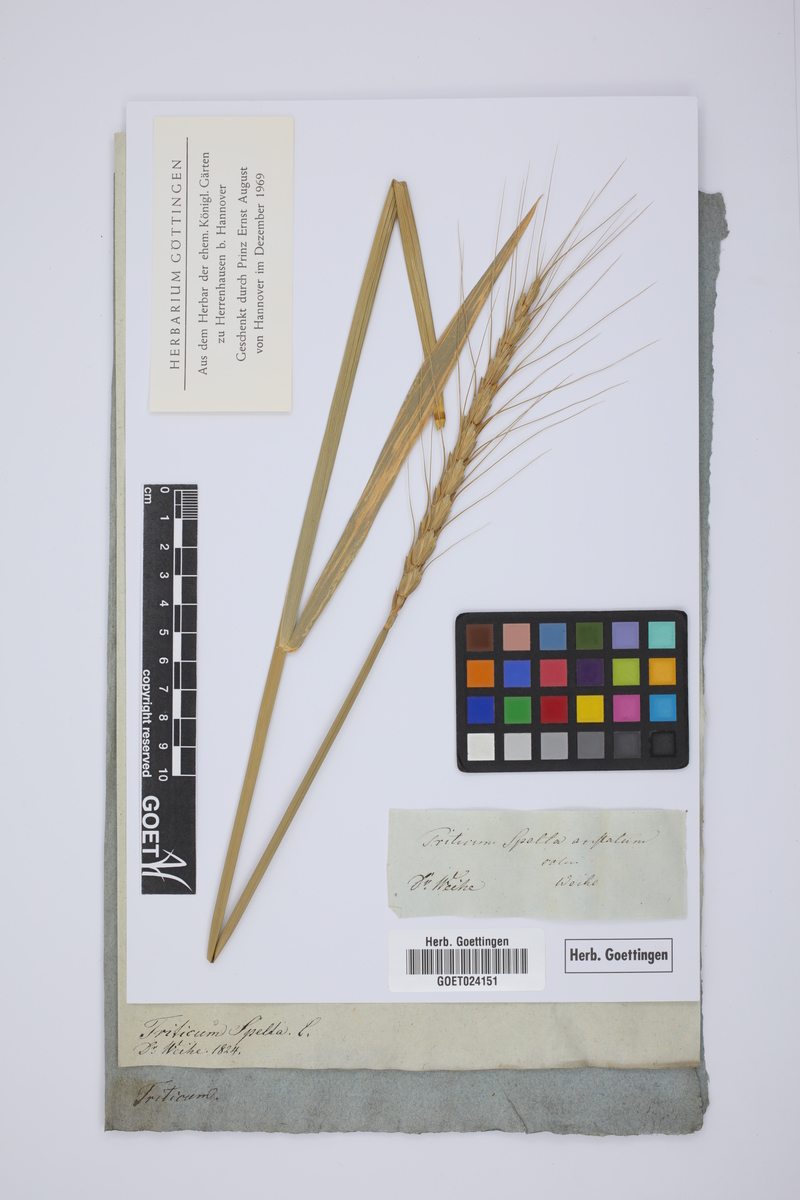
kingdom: Plantae
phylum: Tracheophyta
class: Liliopsida
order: Poales
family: Poaceae
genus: Triticum
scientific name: Triticum aestivum
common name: Common wheat
